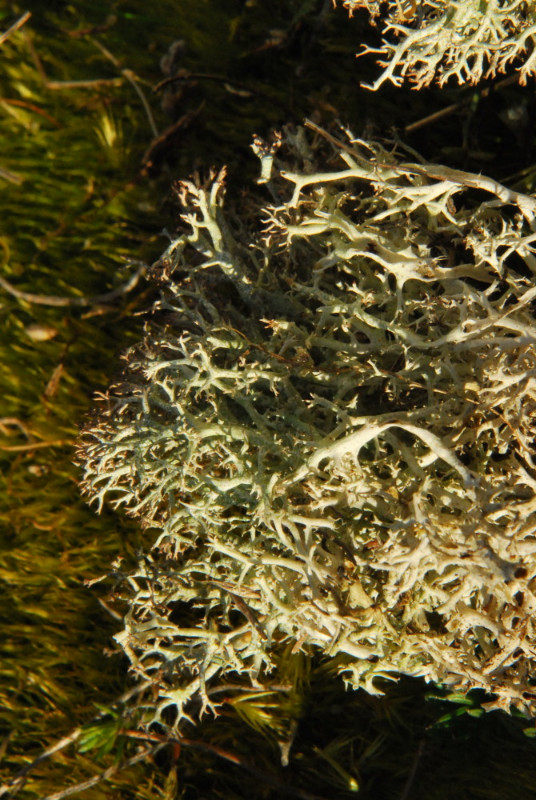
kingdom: Fungi
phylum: Ascomycota
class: Lecanoromycetes
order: Lecanorales
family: Cladoniaceae
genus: Cladonia
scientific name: Cladonia rangiformis
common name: spættet bægerlav
